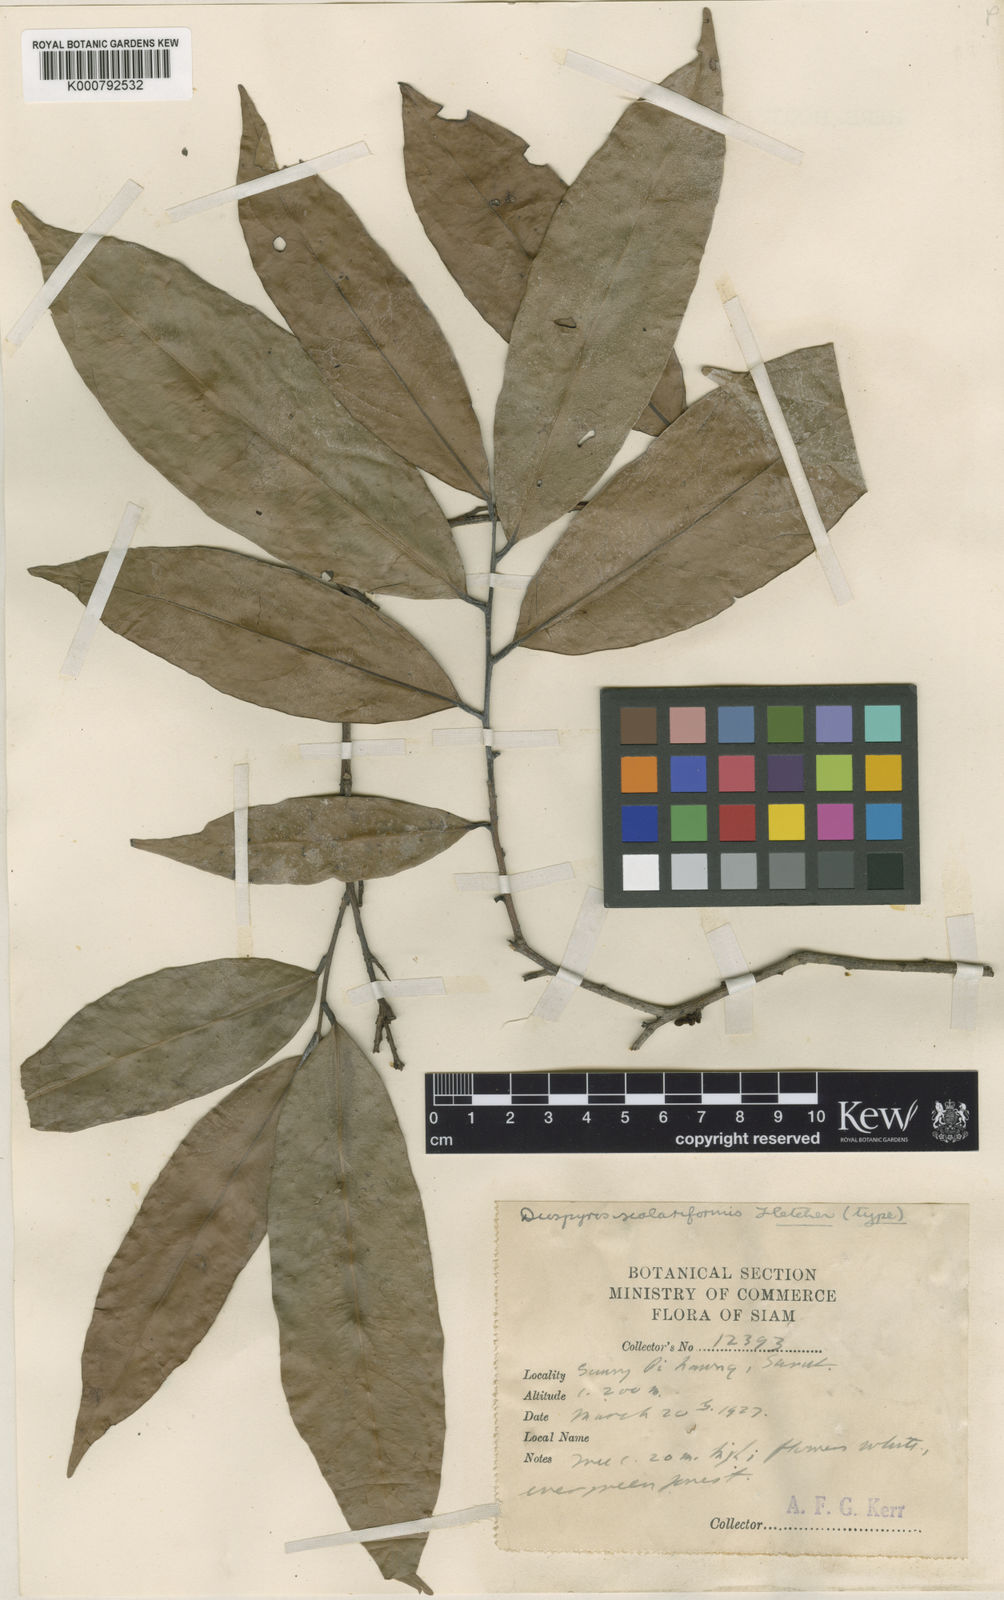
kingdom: Plantae
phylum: Tracheophyta
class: Magnoliopsida
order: Ericales
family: Ebenaceae
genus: Diospyros
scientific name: Diospyros scalariformis
